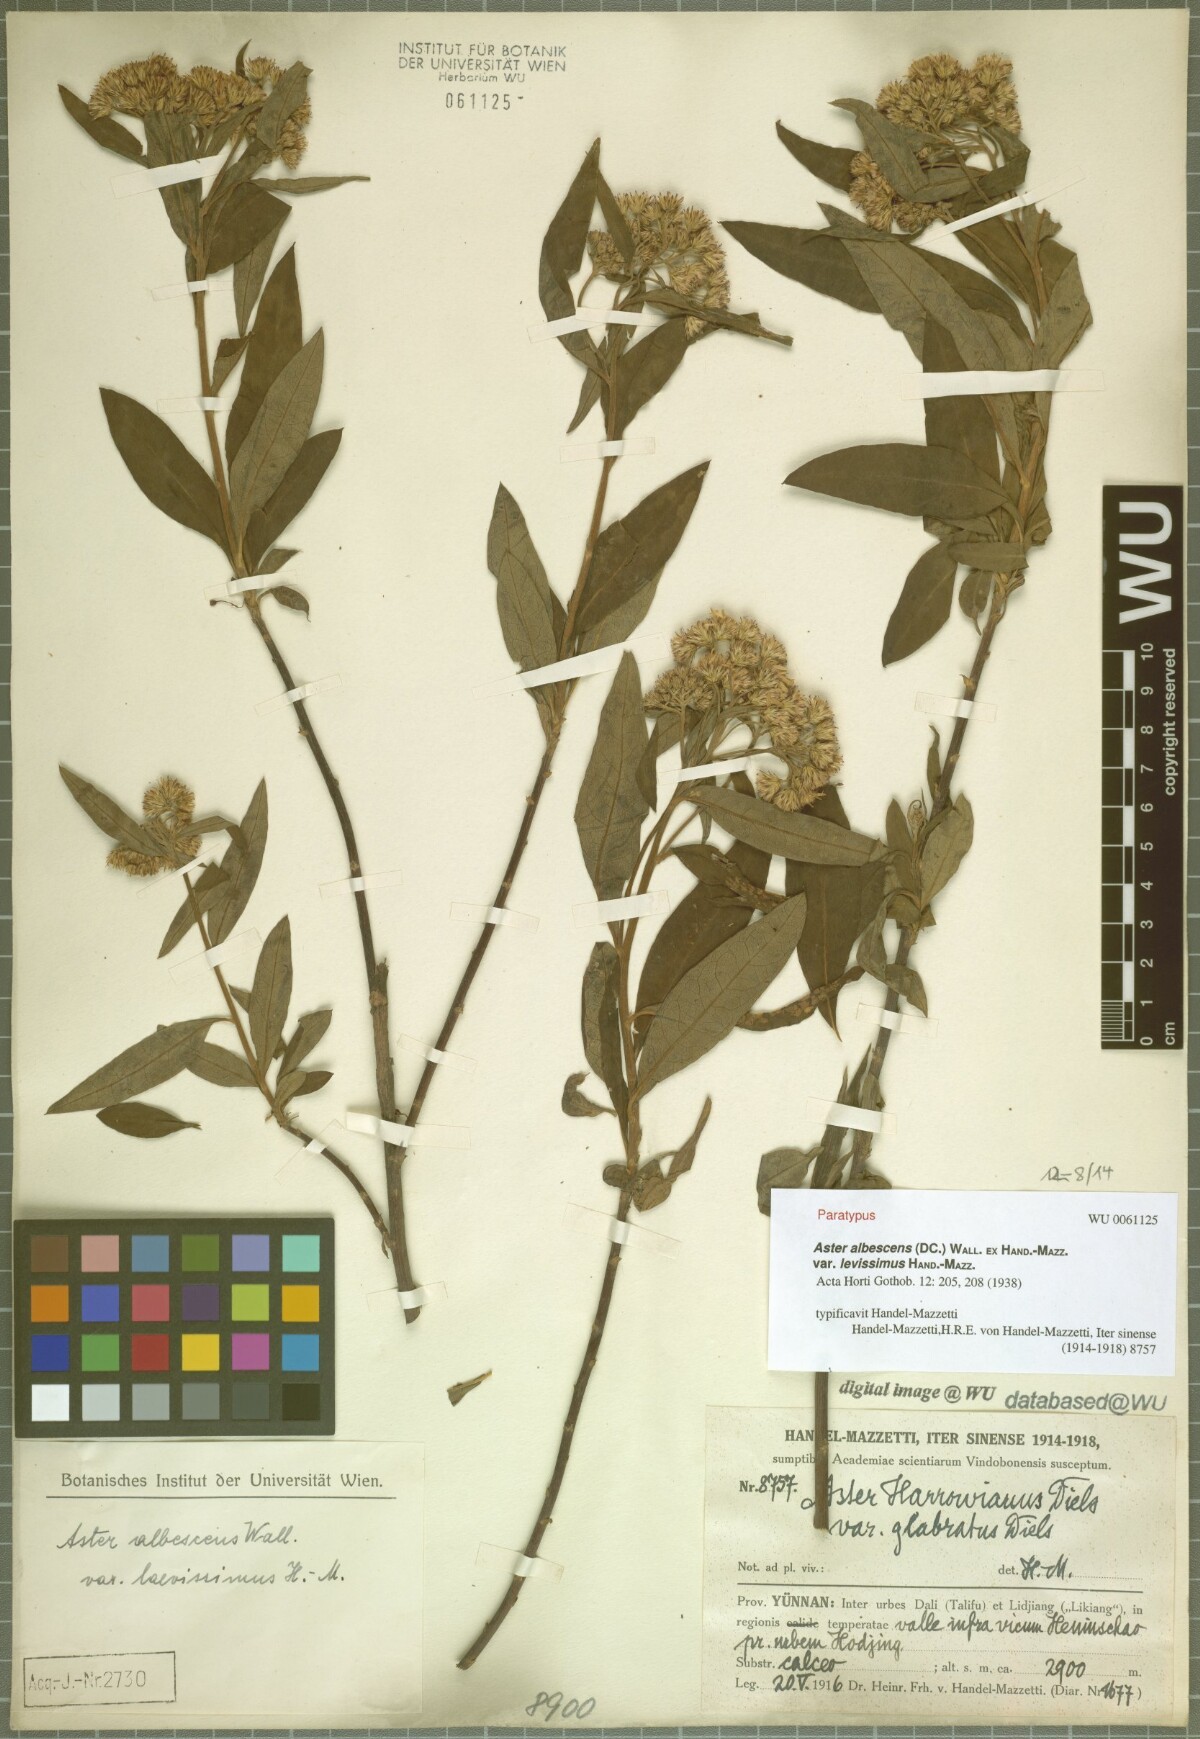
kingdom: Plantae
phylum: Tracheophyta
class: Magnoliopsida
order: Asterales
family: Asteraceae
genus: Sinosidus
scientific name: Sinosidus albescens
